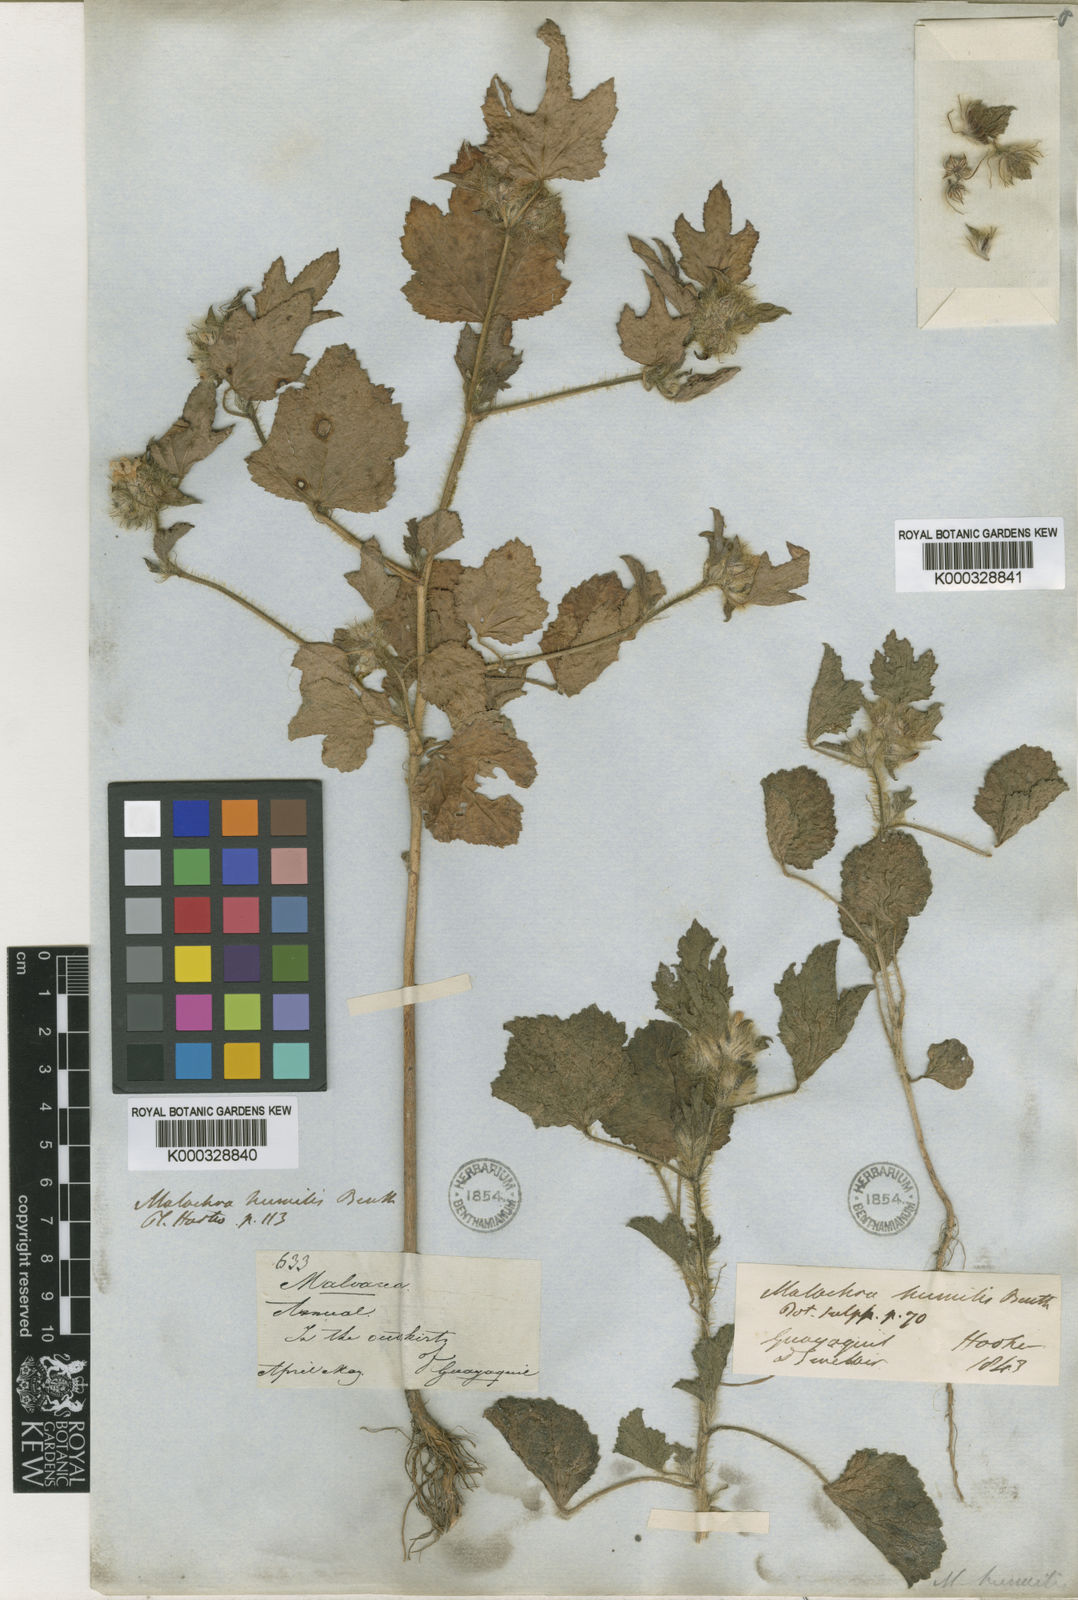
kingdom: Plantae
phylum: Tracheophyta
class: Magnoliopsida
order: Malvales
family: Malvaceae
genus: Malachra
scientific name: Malachra fasciata
